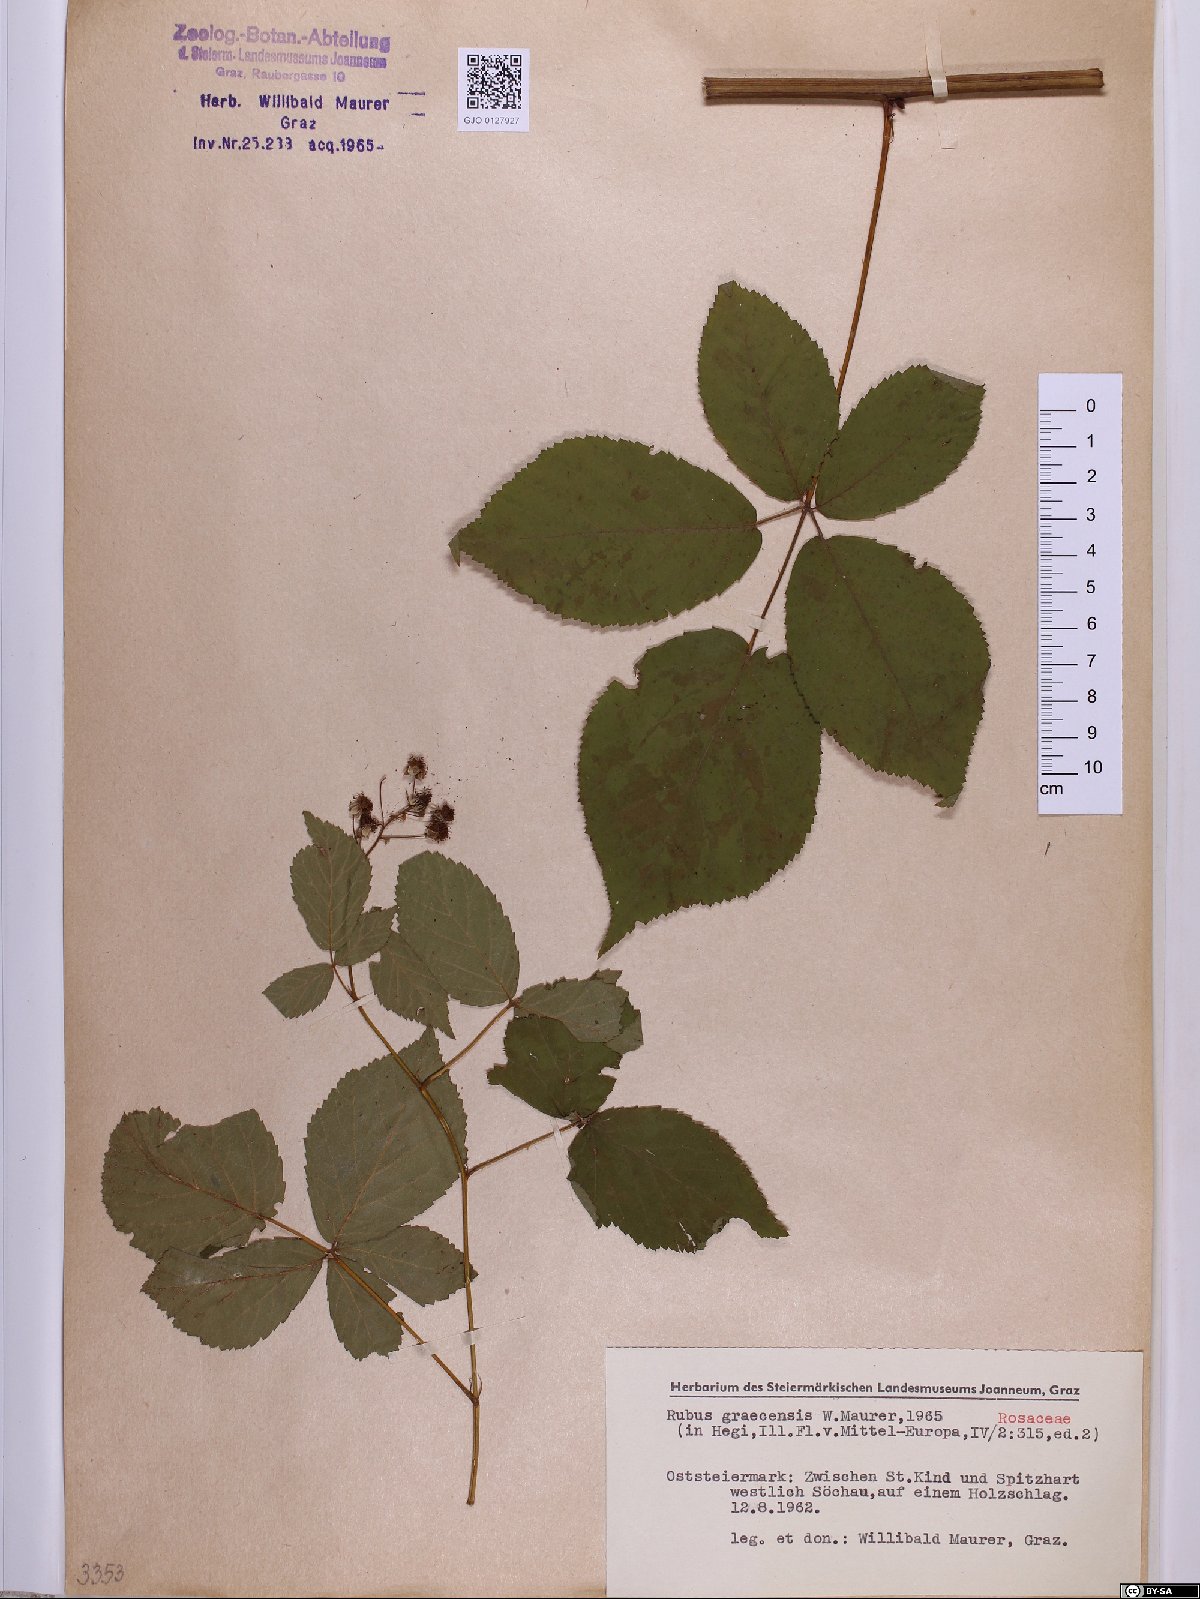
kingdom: Plantae
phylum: Tracheophyta
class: Magnoliopsida
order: Rosales
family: Rosaceae
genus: Rubus
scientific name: Rubus graecensis
